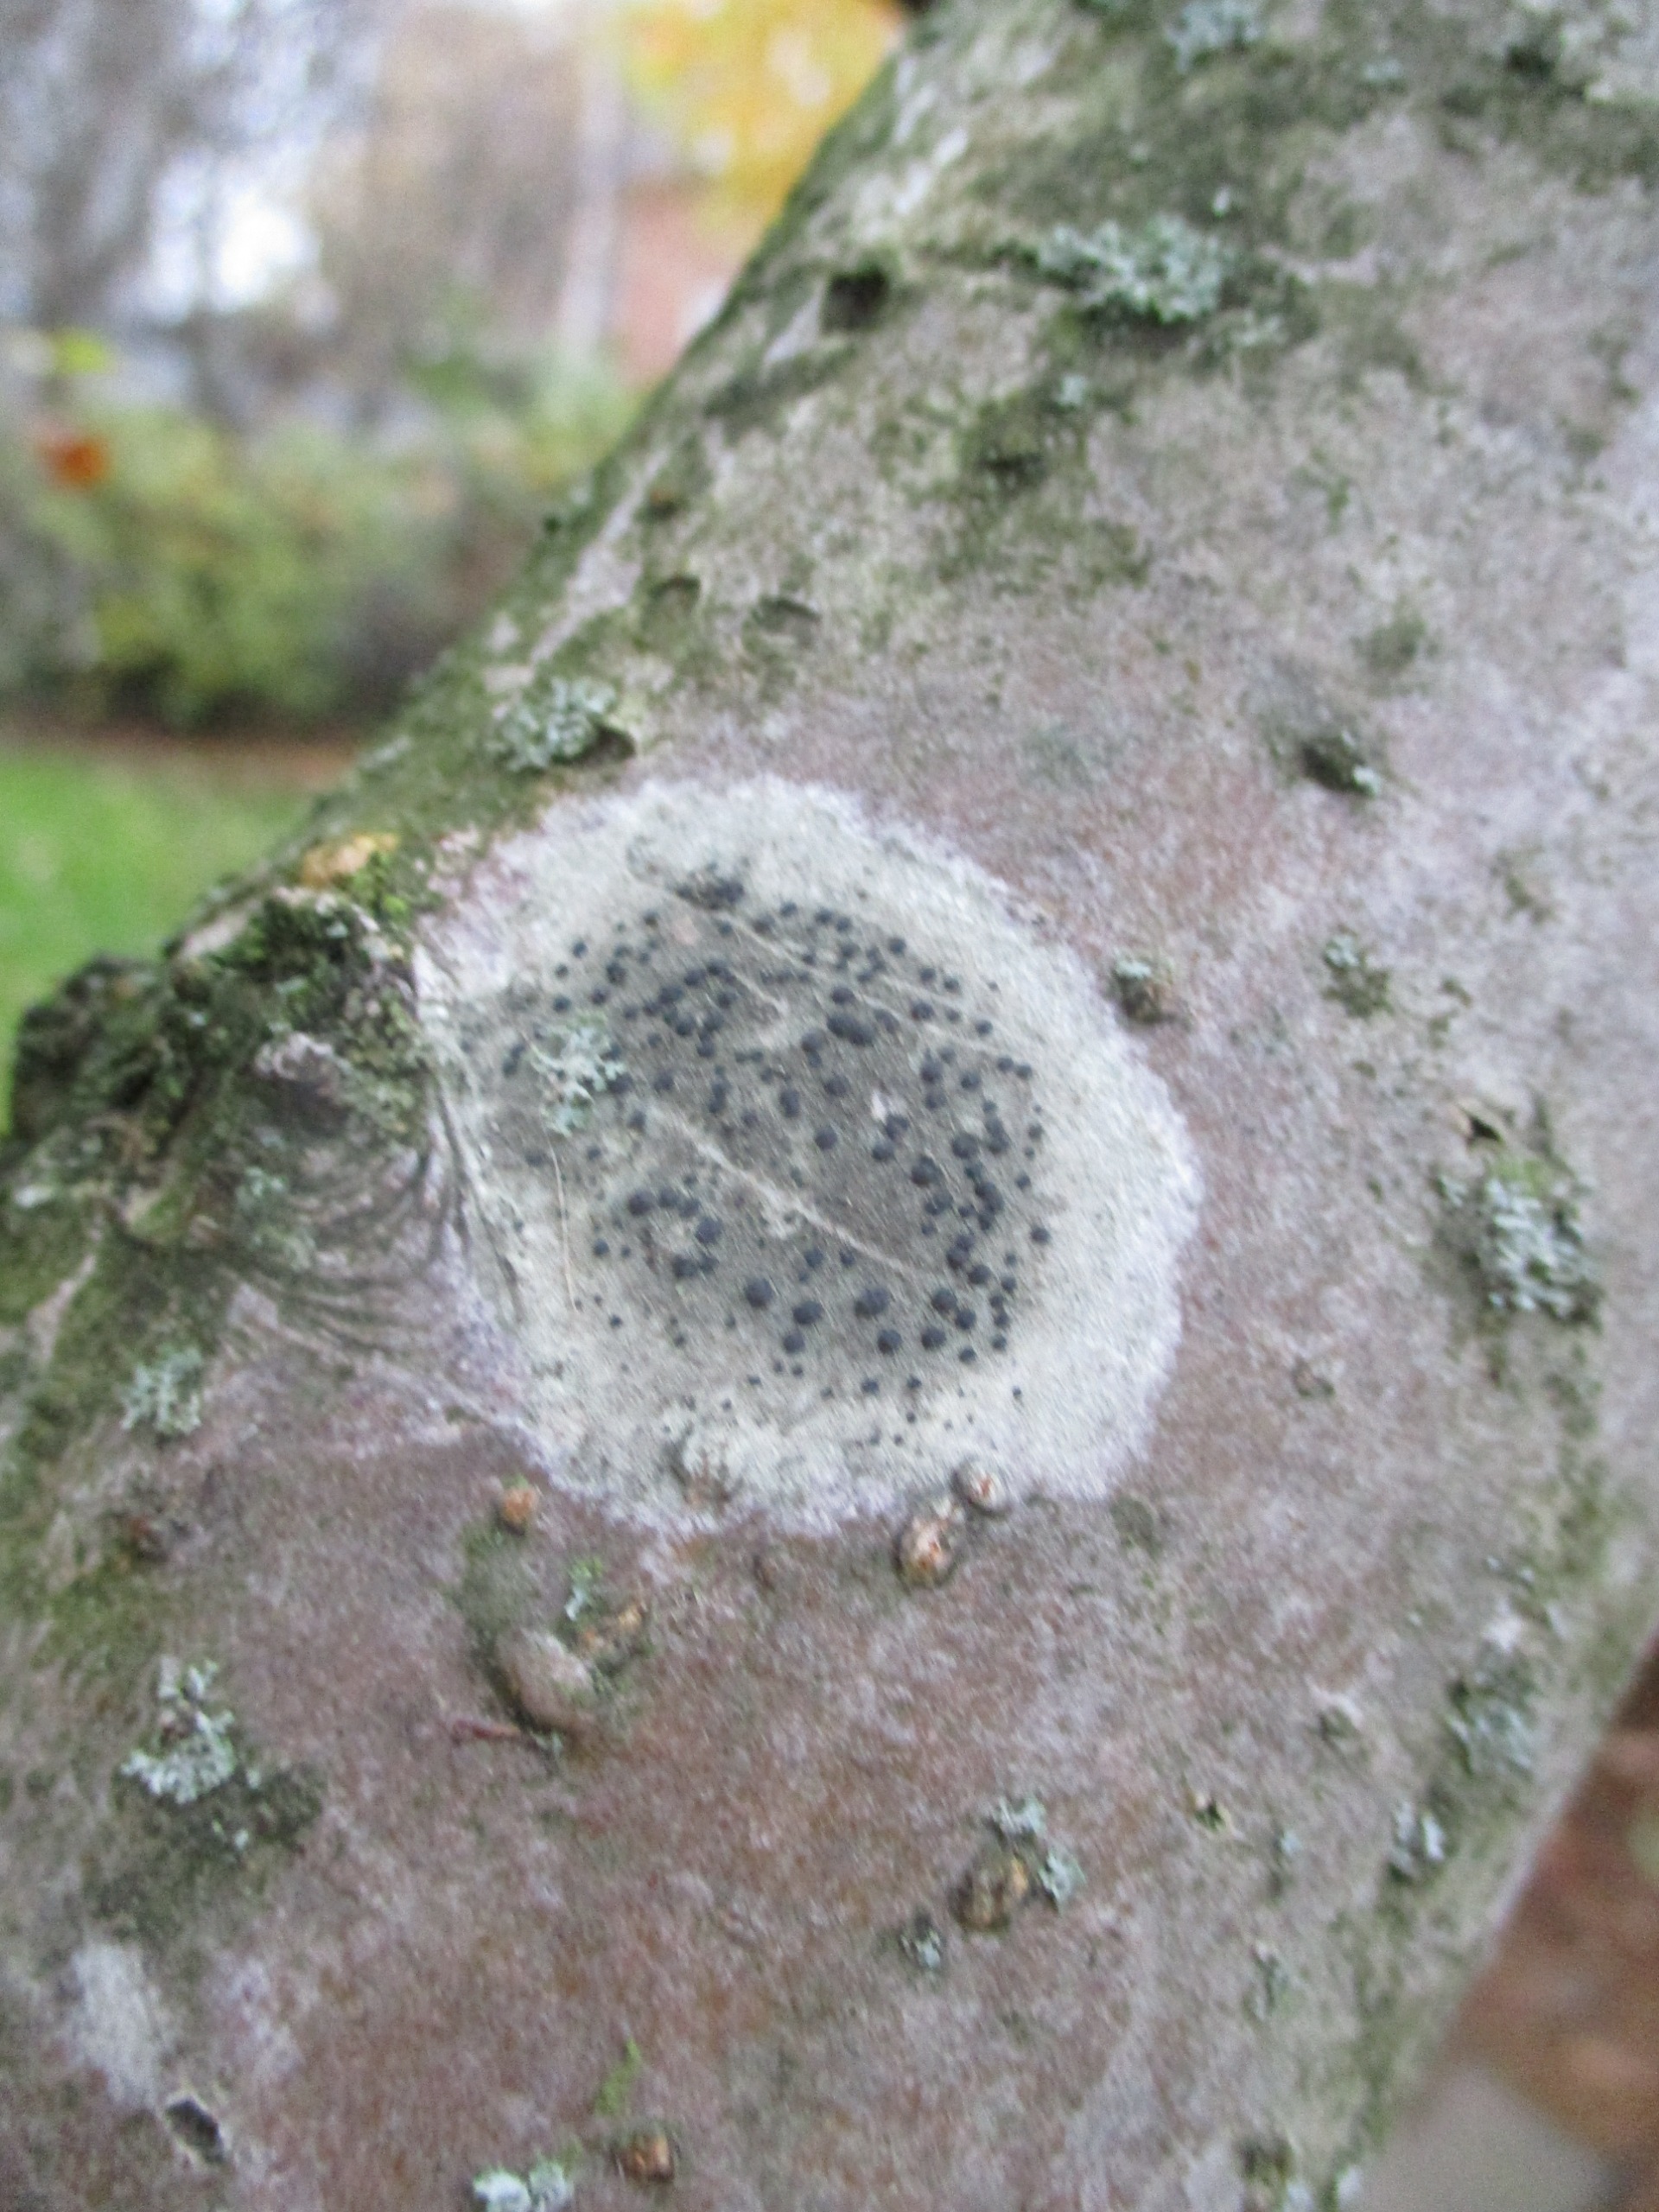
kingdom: Fungi
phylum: Ascomycota
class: Lecanoromycetes
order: Lecanorales
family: Lecanoraceae
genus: Lecidella
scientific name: Lecidella elaeochroma
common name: Grågrøn skivelav
